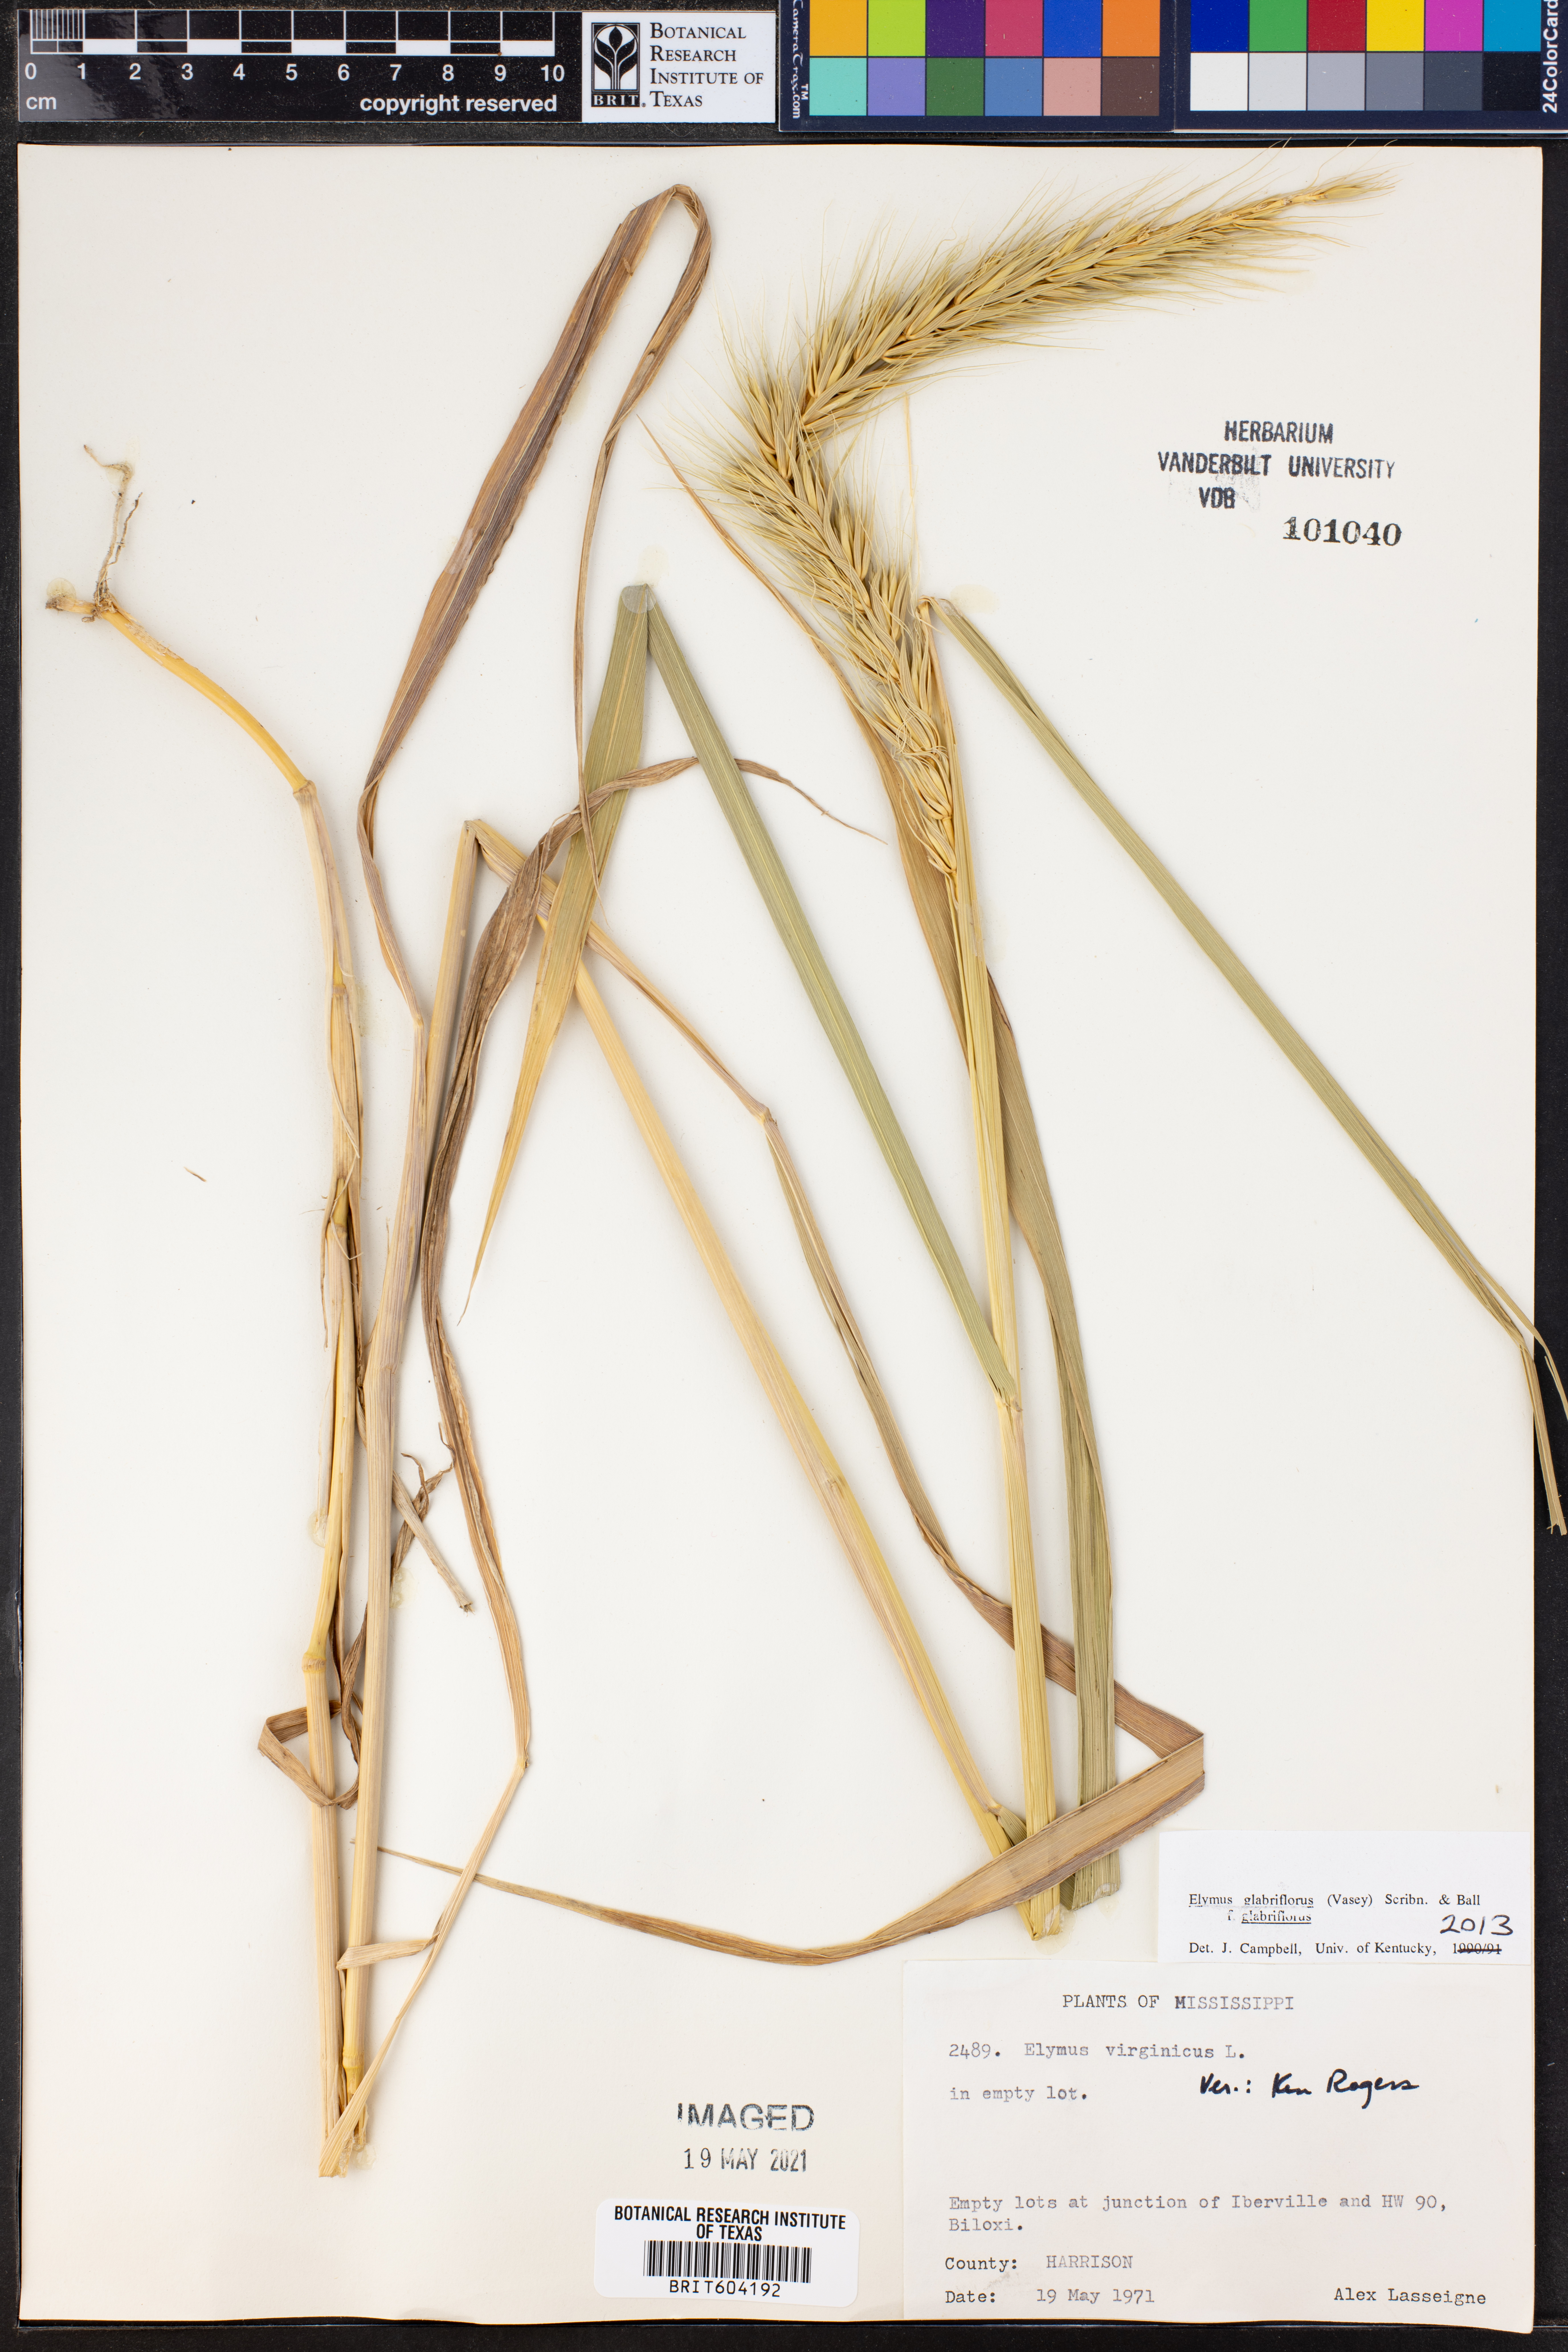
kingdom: Plantae
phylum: Tracheophyta
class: Liliopsida
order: Poales
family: Poaceae
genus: Elymus
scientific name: Elymus virginicus
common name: Common eastern wildrye
